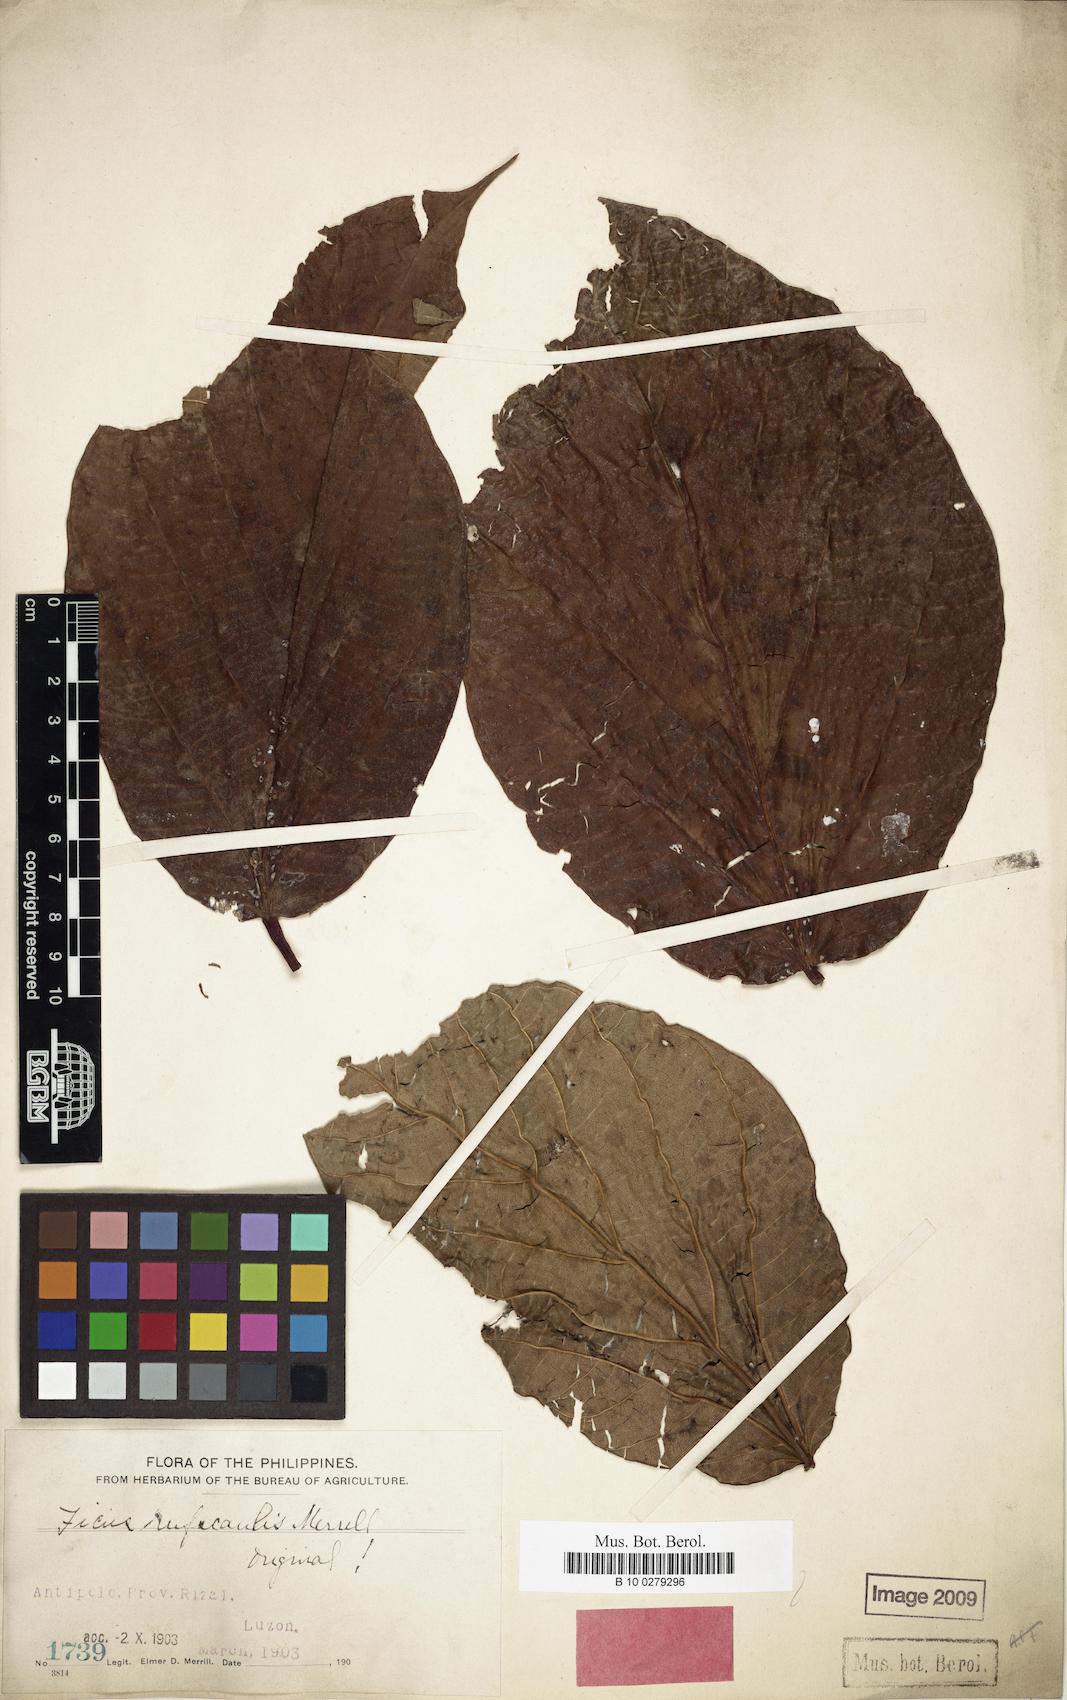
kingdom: Plantae
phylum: Tracheophyta
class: Magnoliopsida
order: Rosales
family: Moraceae
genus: Ficus
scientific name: Ficus ruficaulis
